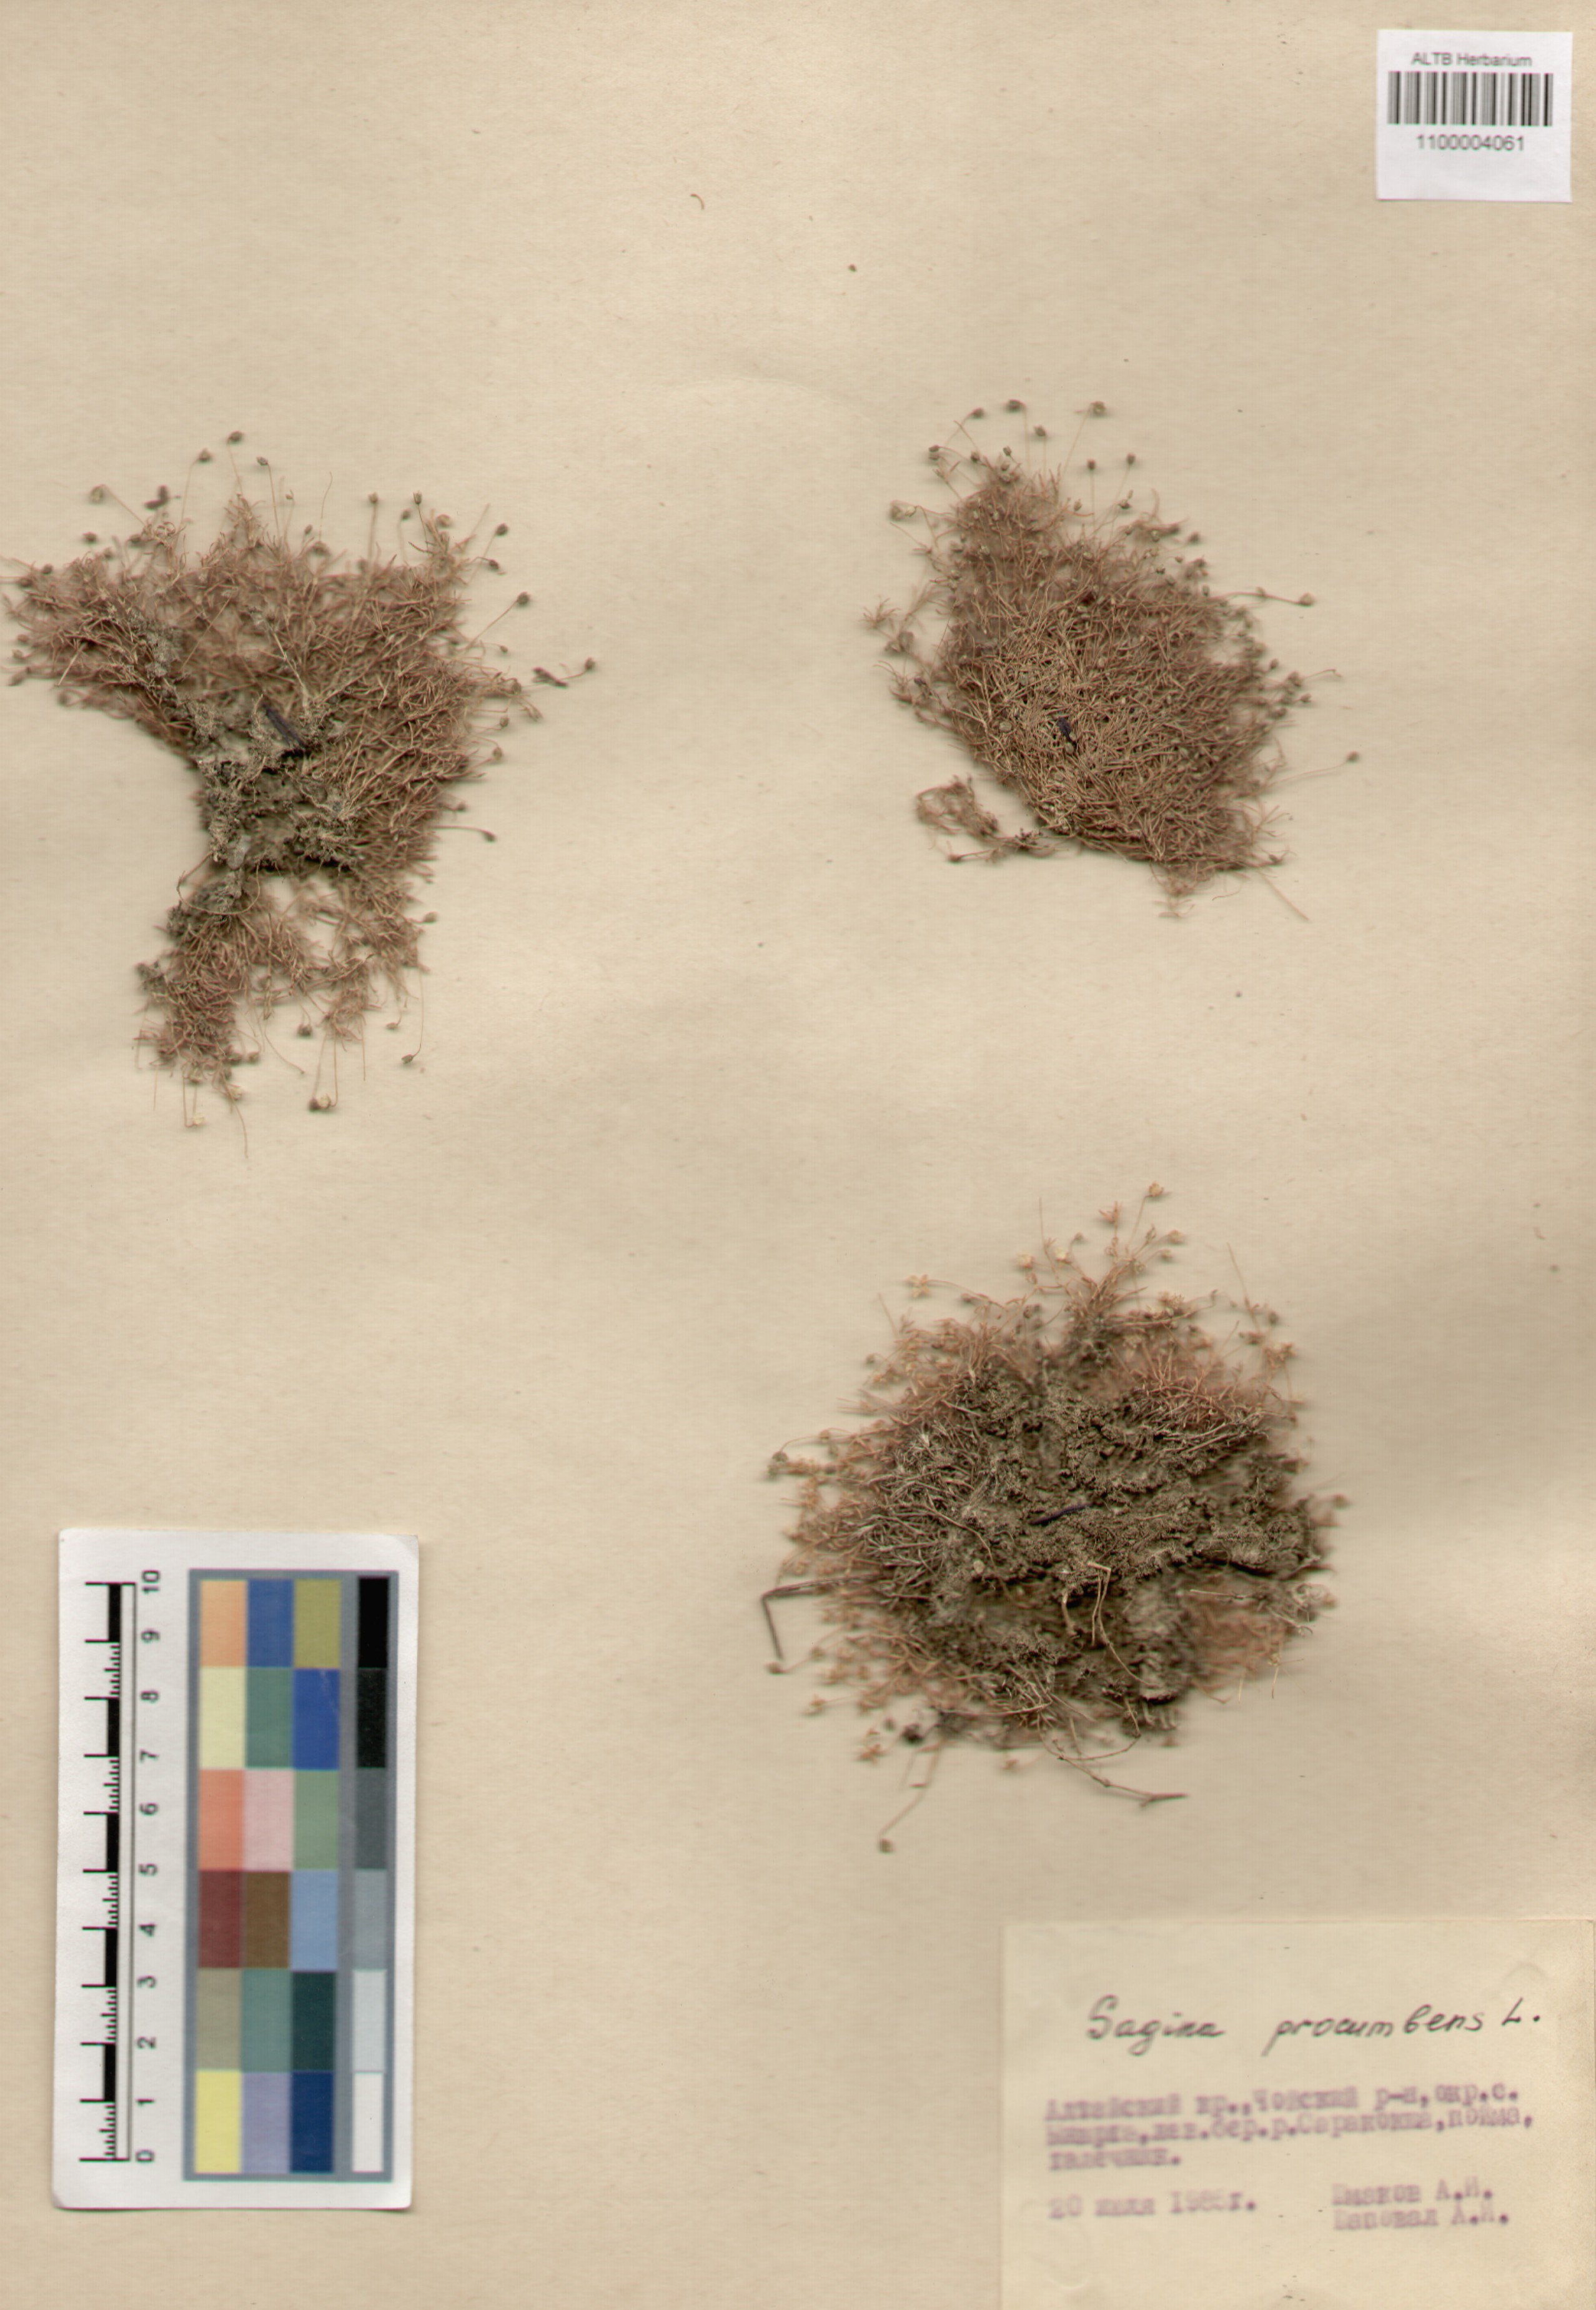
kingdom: Plantae
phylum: Tracheophyta
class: Magnoliopsida
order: Caryophyllales
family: Caryophyllaceae
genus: Sagina
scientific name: Sagina procumbens
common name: Procumbent pearlwort
